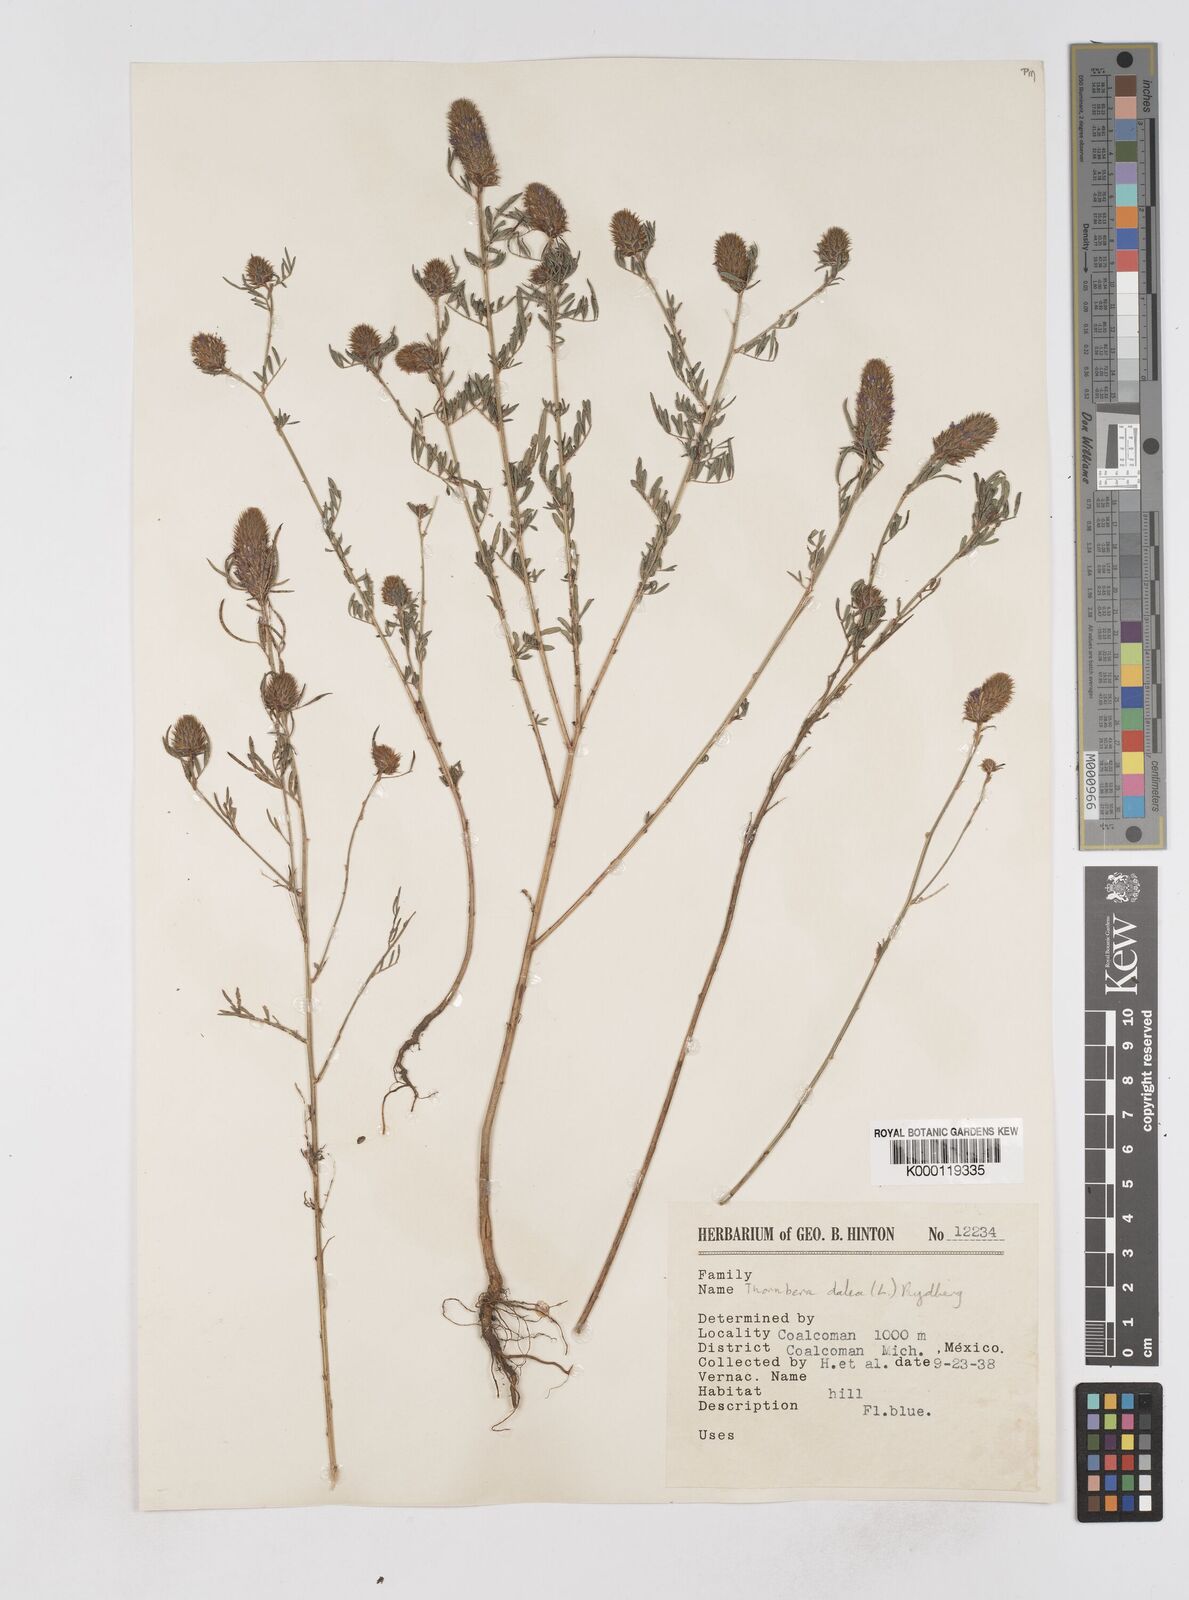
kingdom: Plantae
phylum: Tracheophyta
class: Magnoliopsida
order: Fabales
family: Fabaceae
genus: Dalea
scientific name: Dalea cliffortiana
